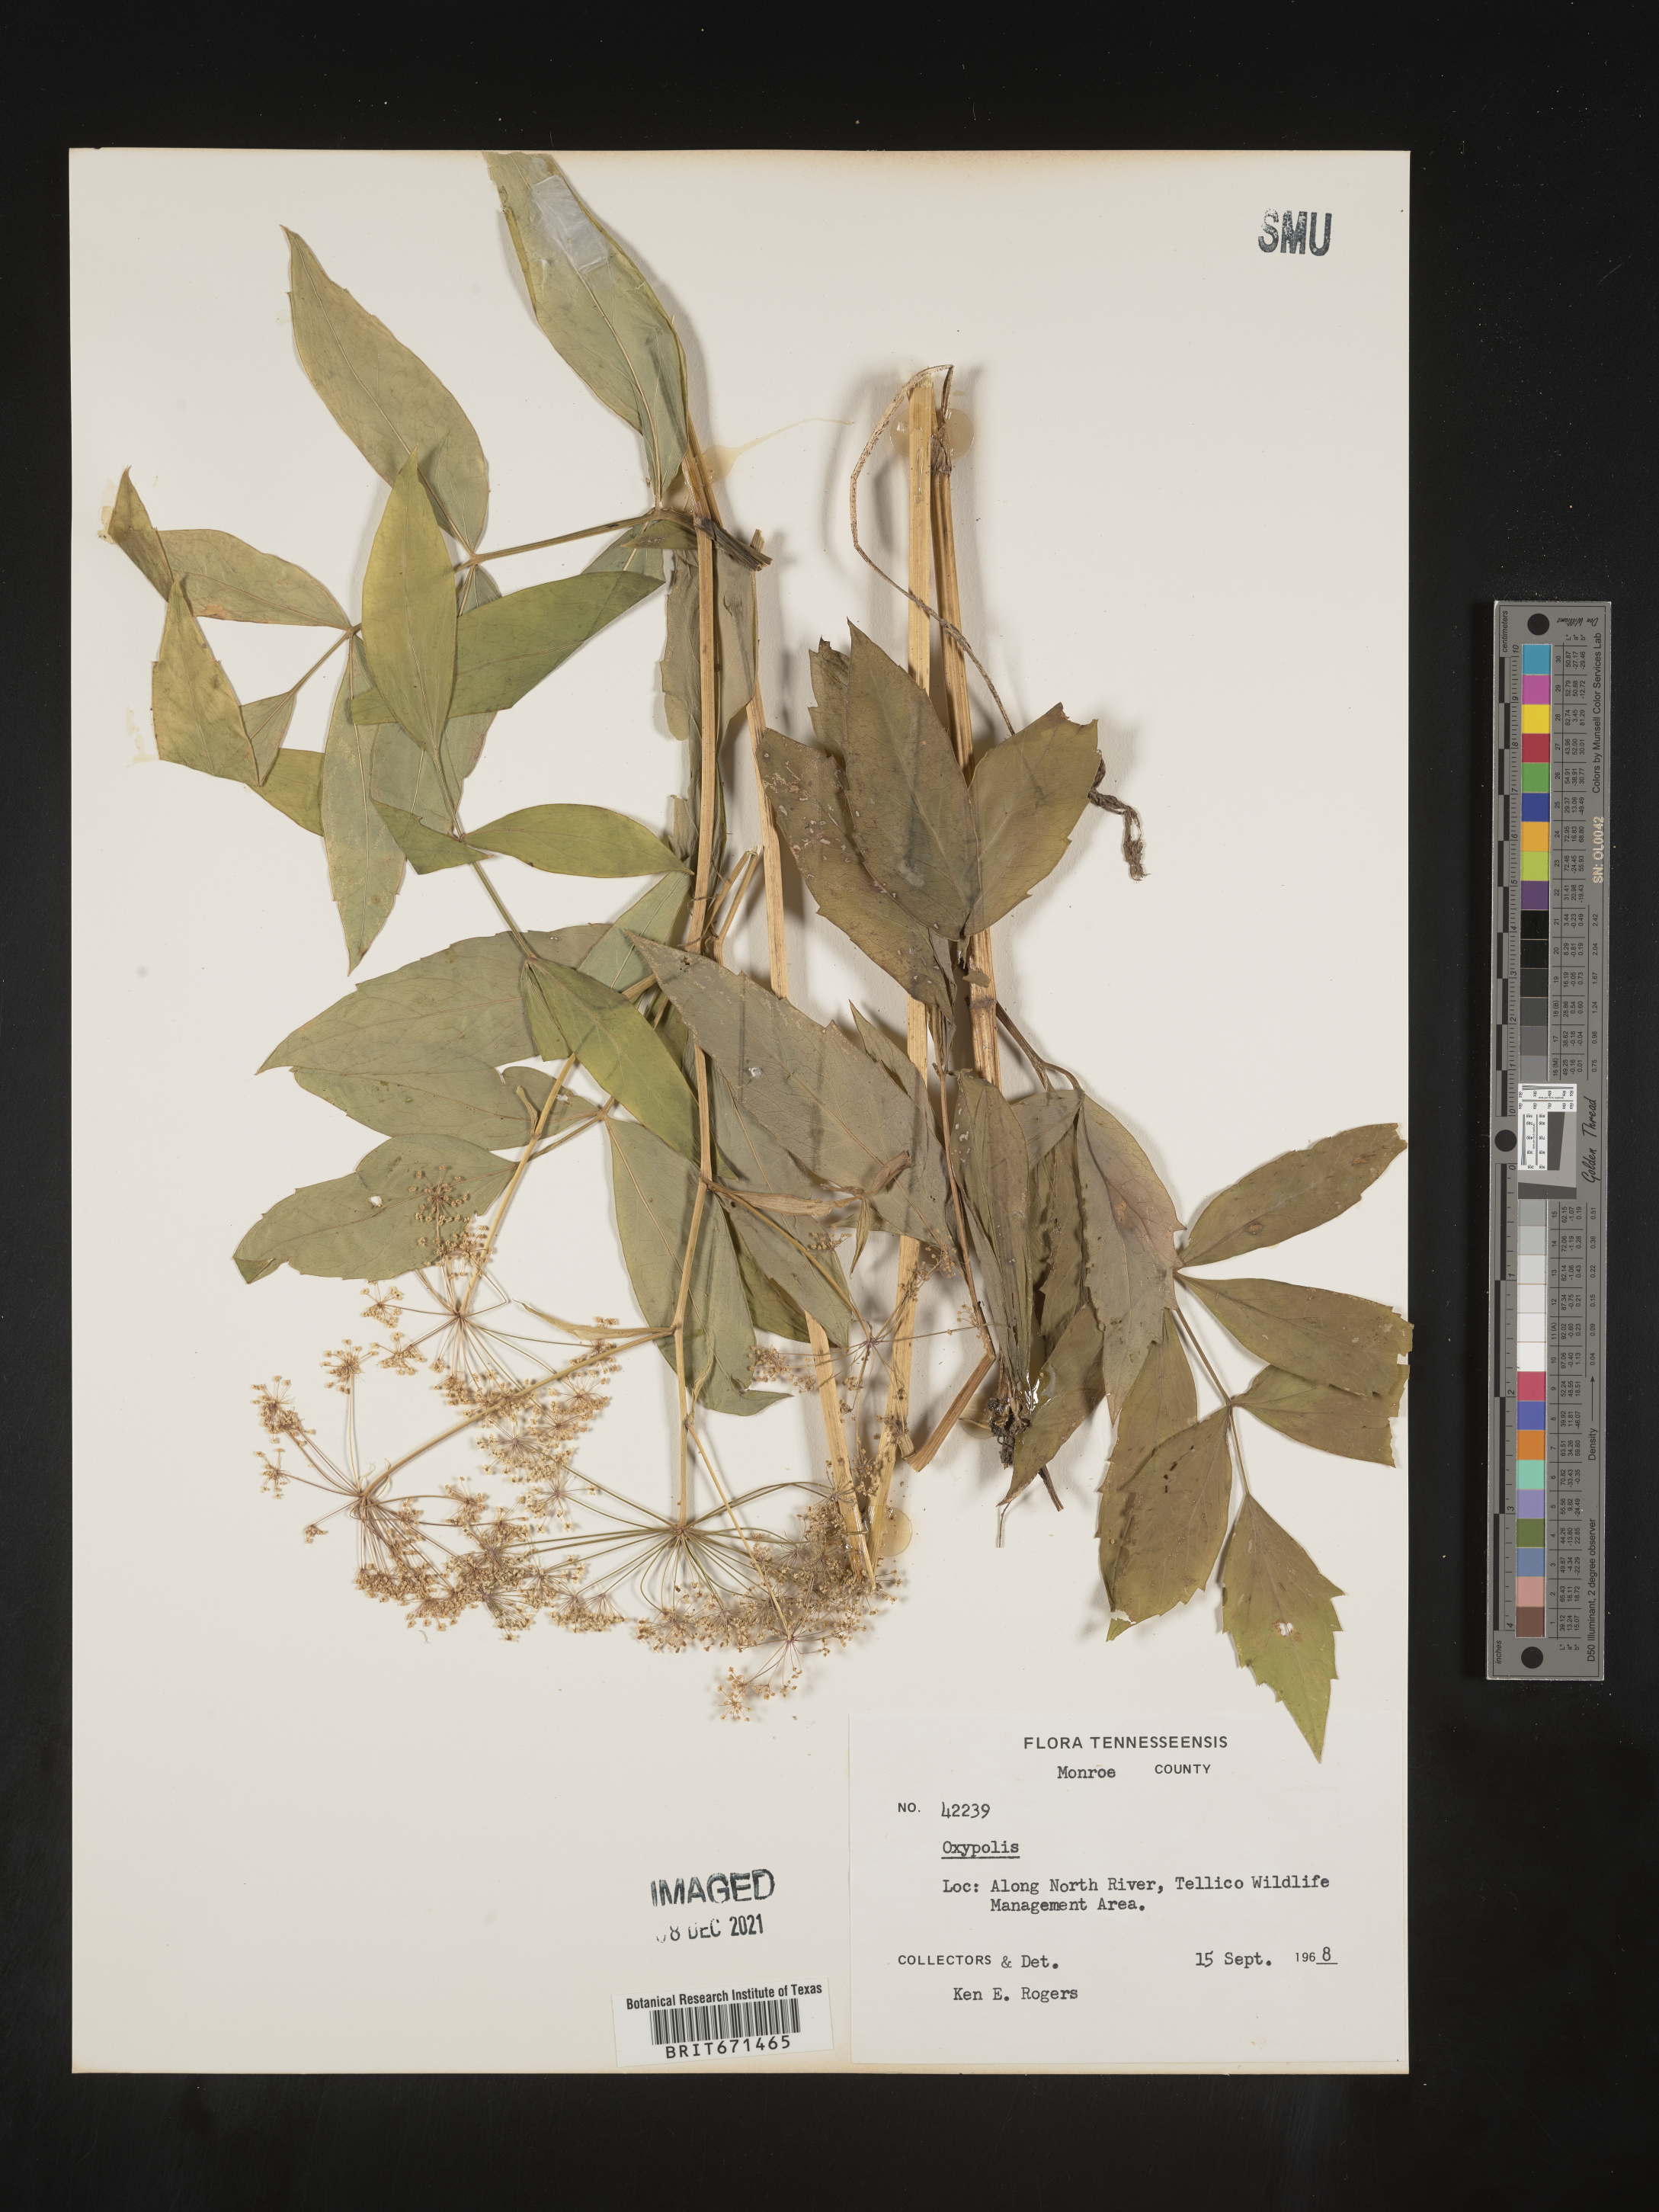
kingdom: Plantae
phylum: Tracheophyta
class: Magnoliopsida
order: Apiales
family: Apiaceae
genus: Oxypolis
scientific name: Oxypolis
